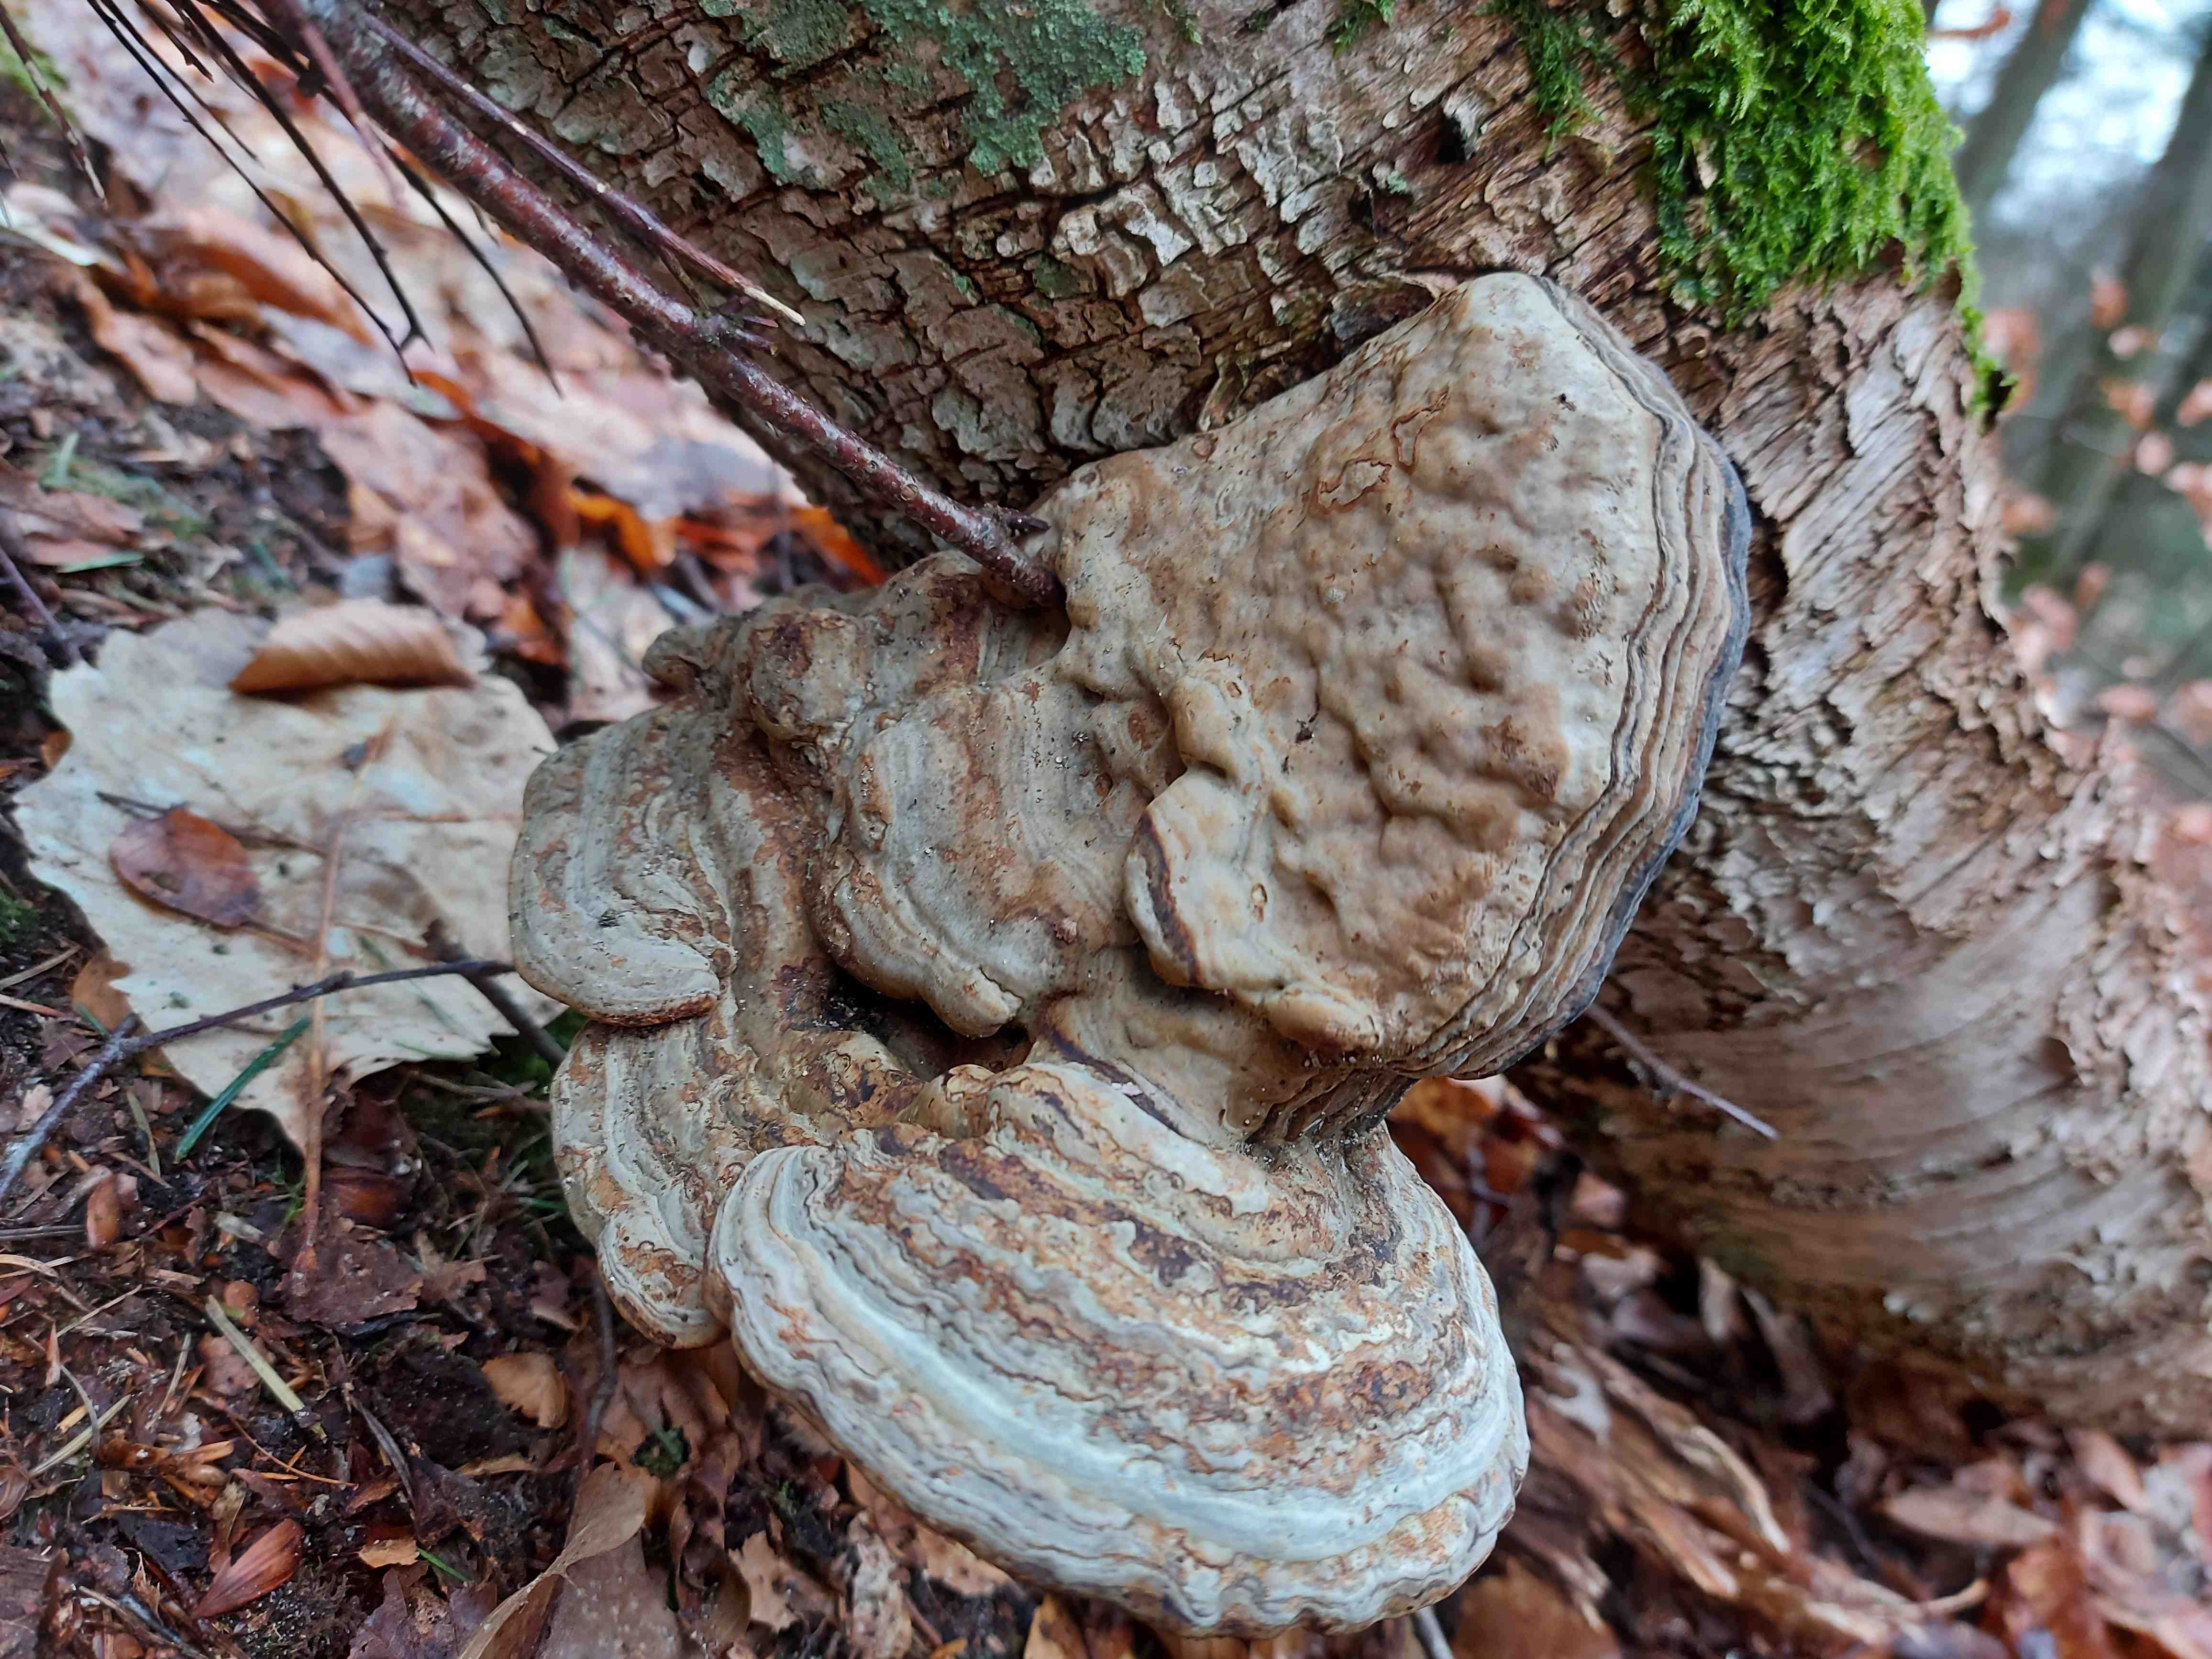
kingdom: Fungi
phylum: Basidiomycota
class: Agaricomycetes
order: Polyporales
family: Polyporaceae
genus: Fomes
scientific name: Fomes fomentarius
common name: tøndersvamp
